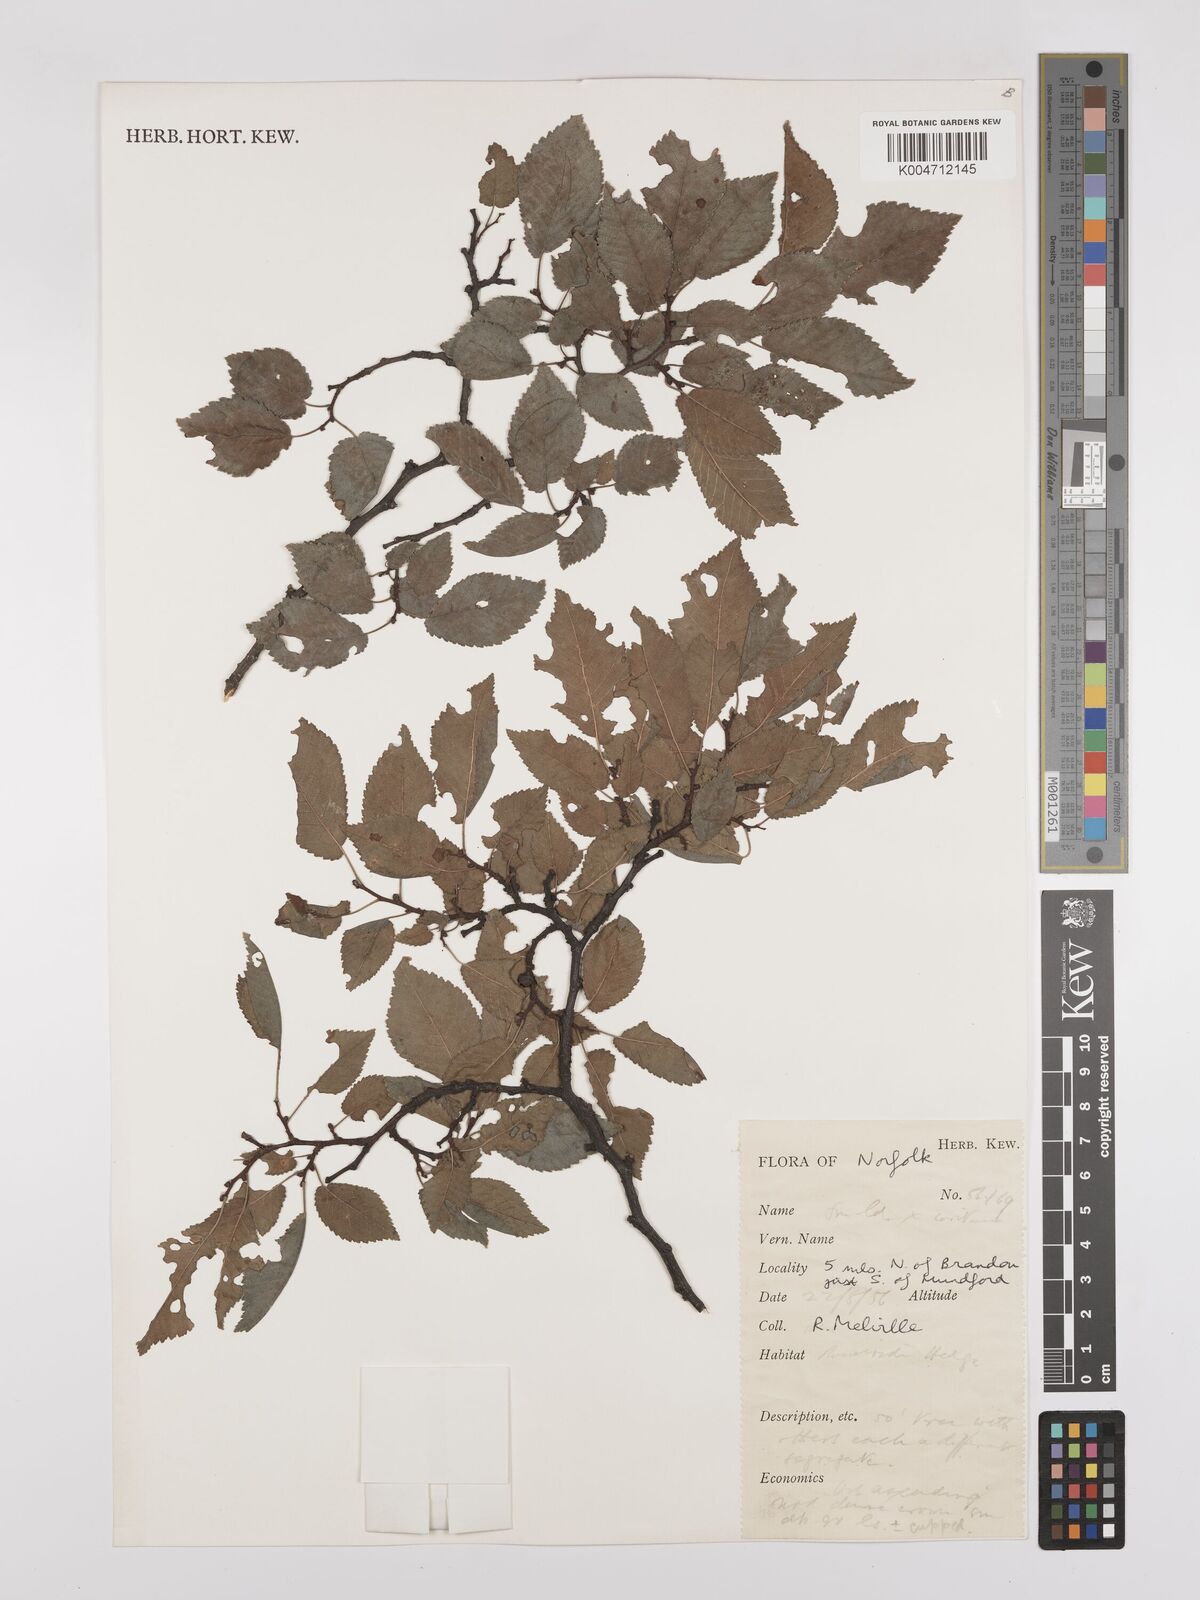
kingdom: Plantae
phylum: Tracheophyta
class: Magnoliopsida
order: Rosales
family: Ulmaceae
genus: Ulmus
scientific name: Ulmus minor
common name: Small-leaved elm
